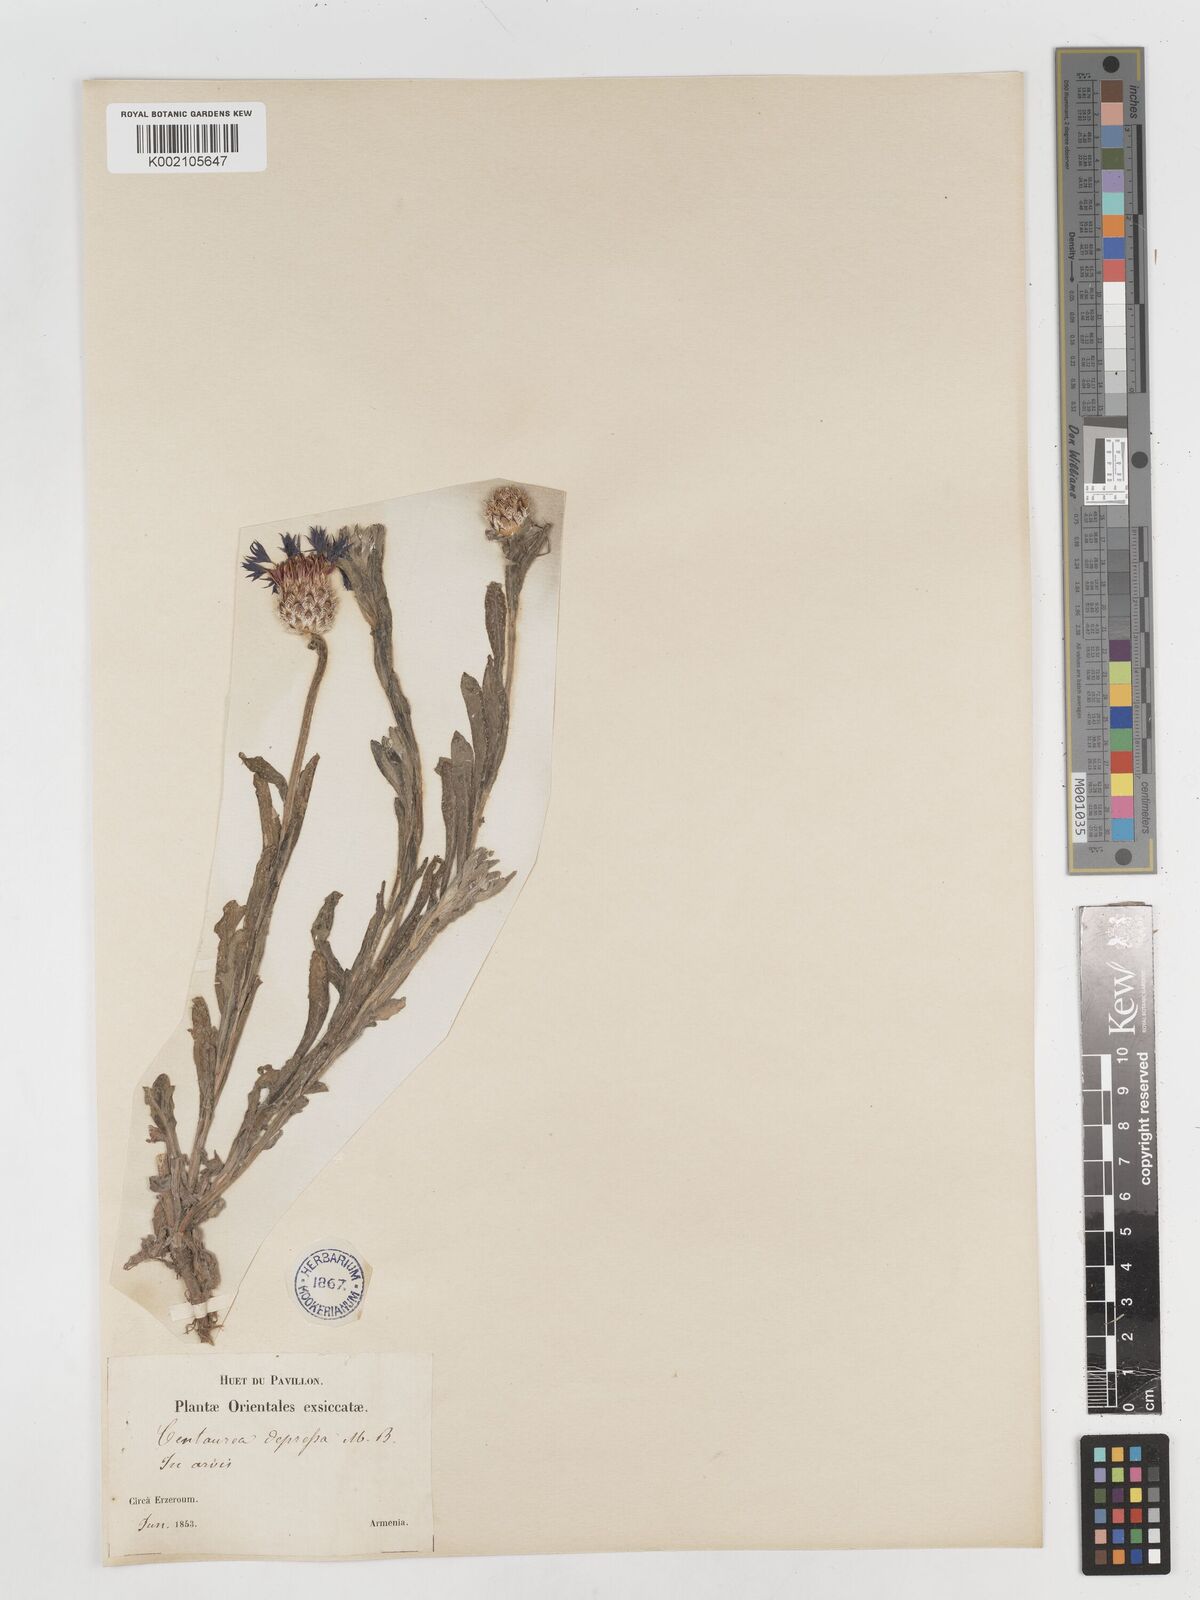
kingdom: Plantae
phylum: Tracheophyta
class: Magnoliopsida
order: Asterales
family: Asteraceae
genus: Centaurea
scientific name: Centaurea depressa
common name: Iranian knapweed
